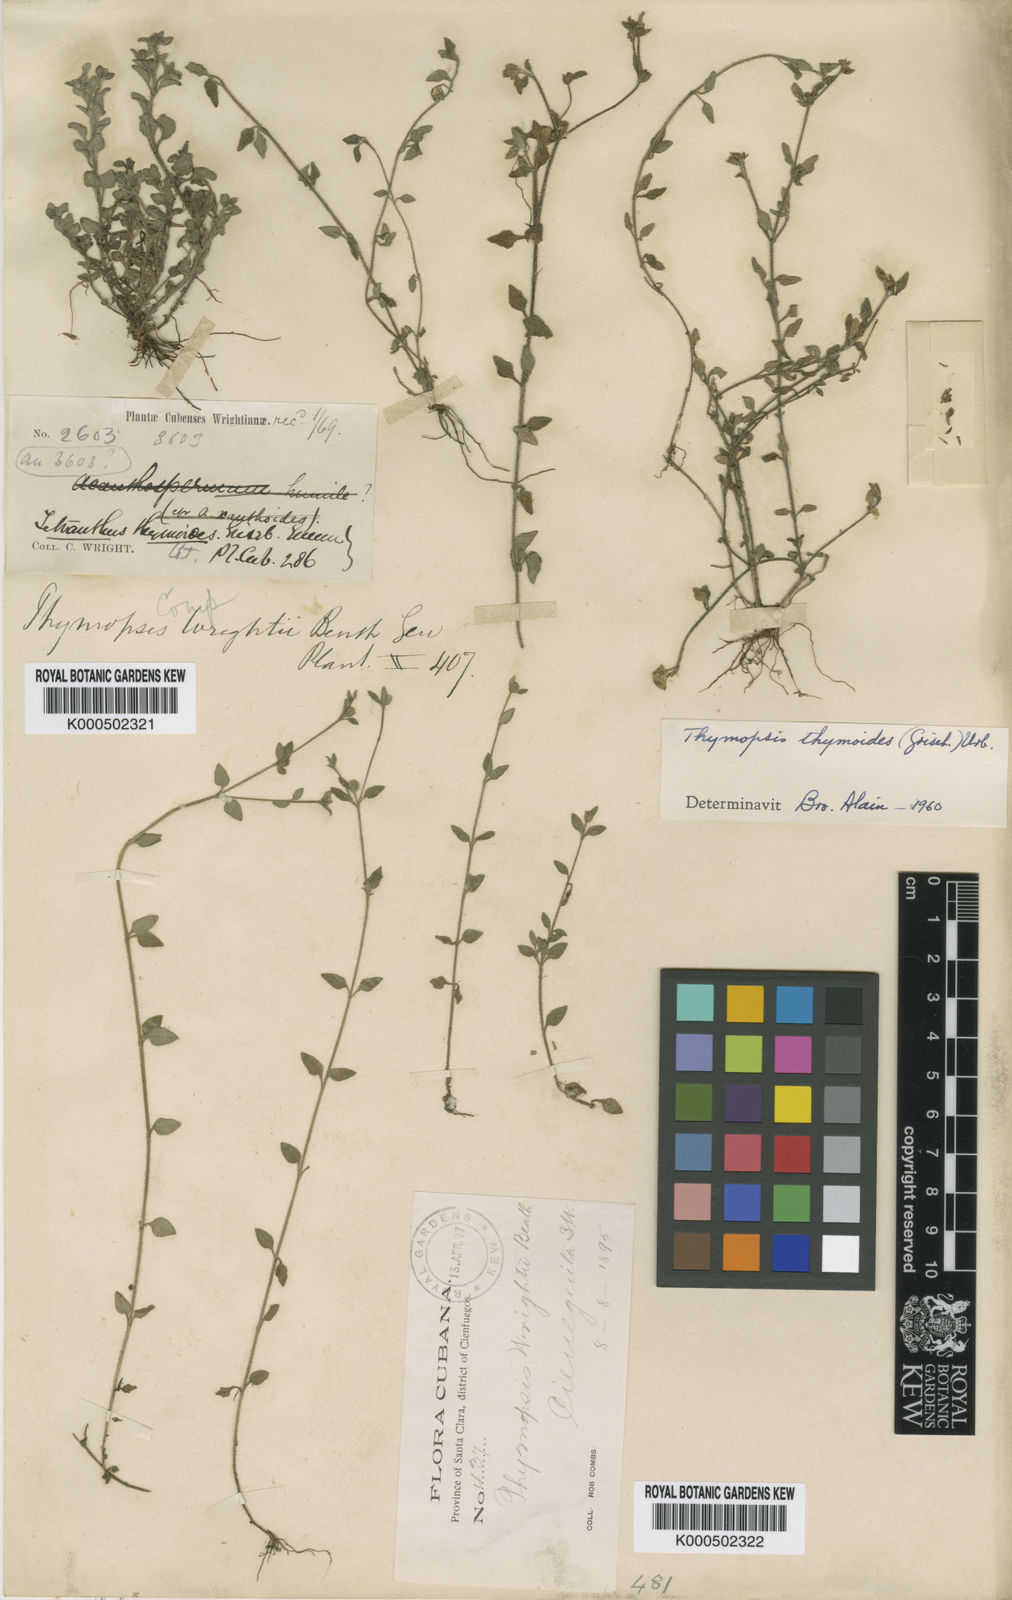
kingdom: Plantae
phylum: Tracheophyta
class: Magnoliopsida
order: Asterales
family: Asteraceae
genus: Thymopsis
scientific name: Thymopsis thymoides
